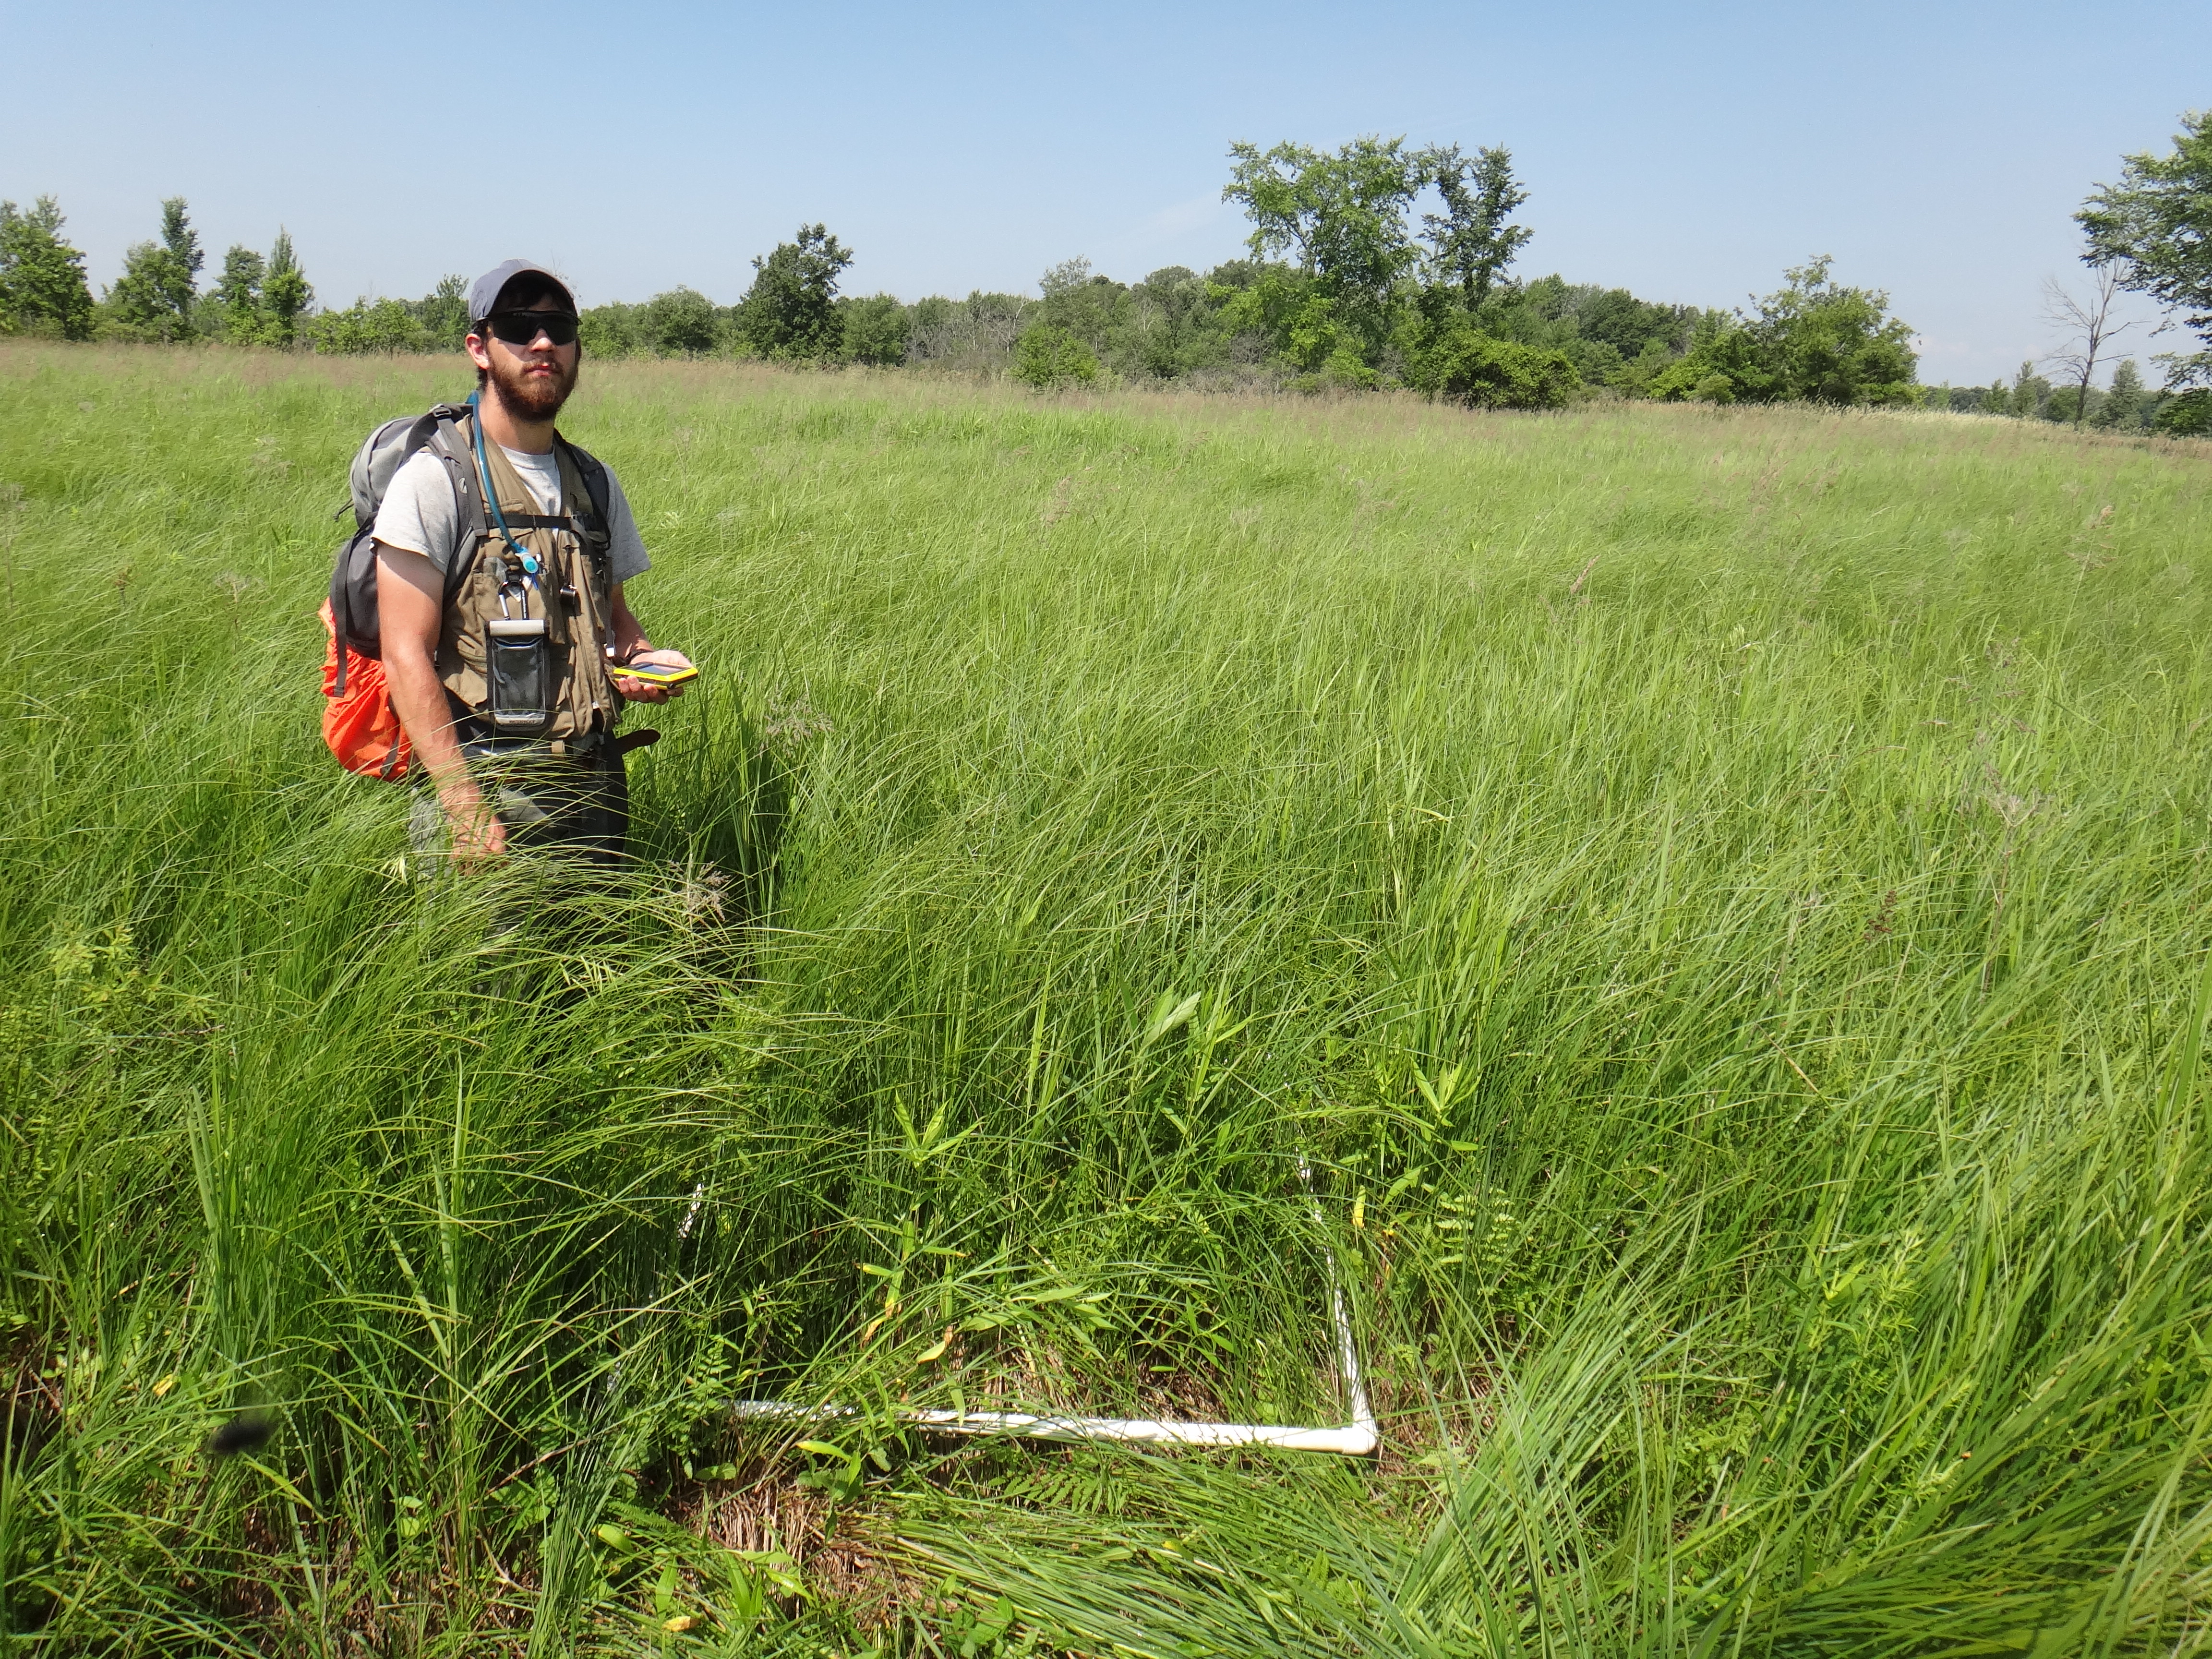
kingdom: Plantae
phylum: Tracheophyta
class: Polypodiopsida
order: Polypodiales
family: Thelypteridaceae
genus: Thelypteris
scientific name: Thelypteris palustris
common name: Marsh fern
